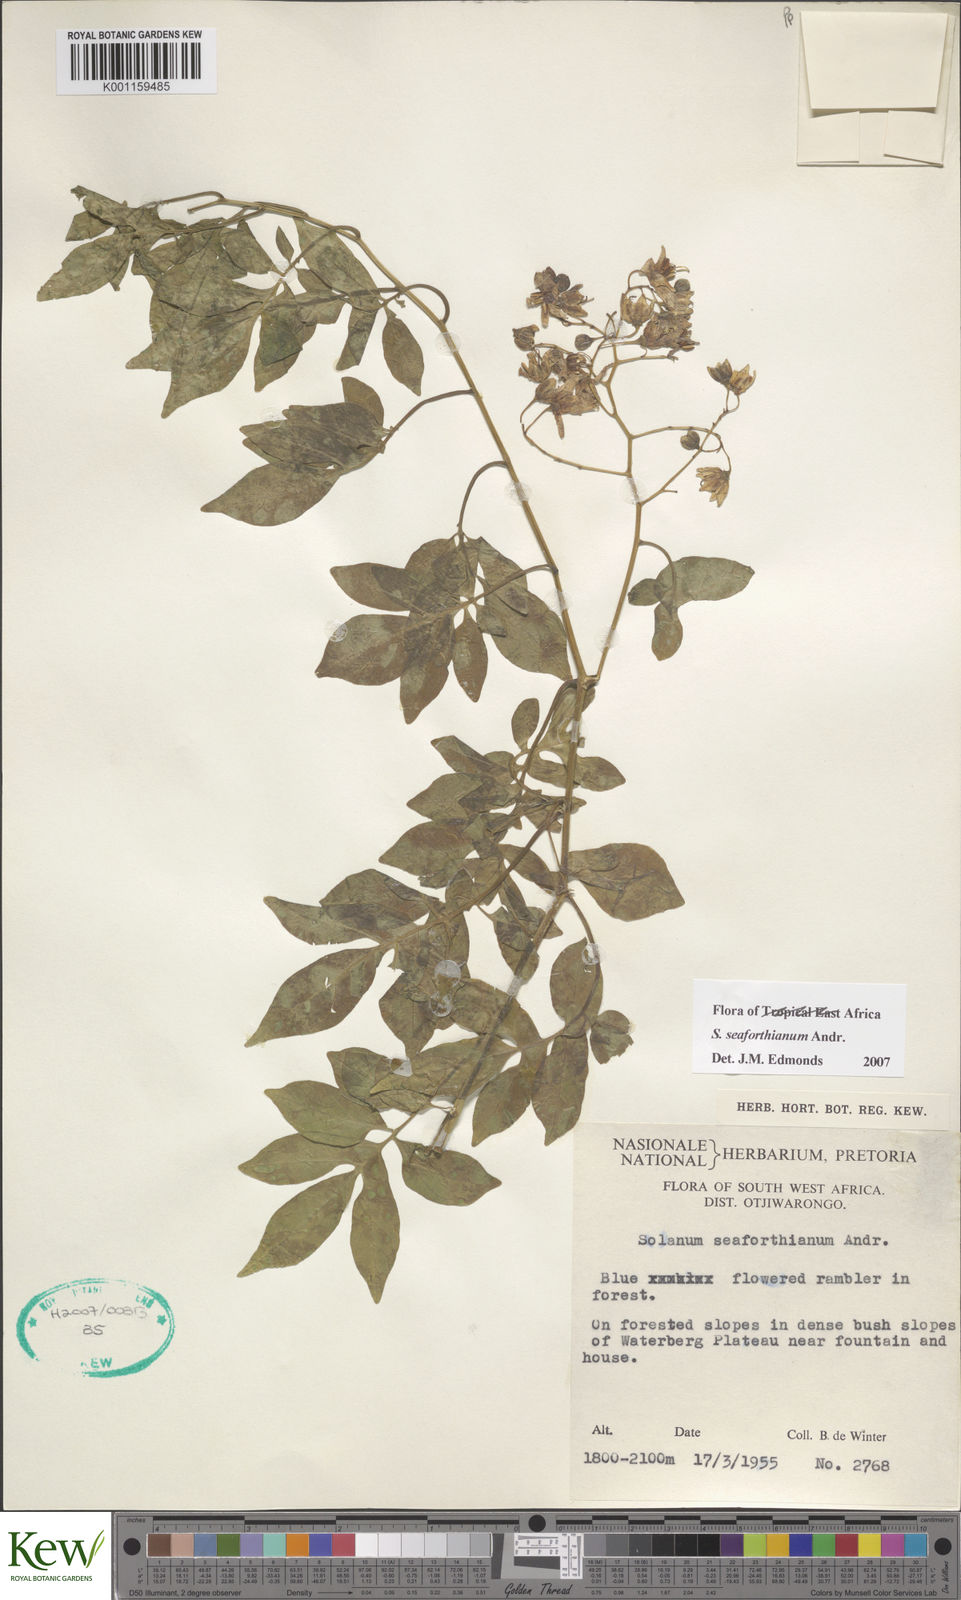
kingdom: Plantae
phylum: Tracheophyta
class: Magnoliopsida
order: Solanales
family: Solanaceae
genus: Solanum
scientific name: Solanum seaforthianum
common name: Brazilian nightshade
